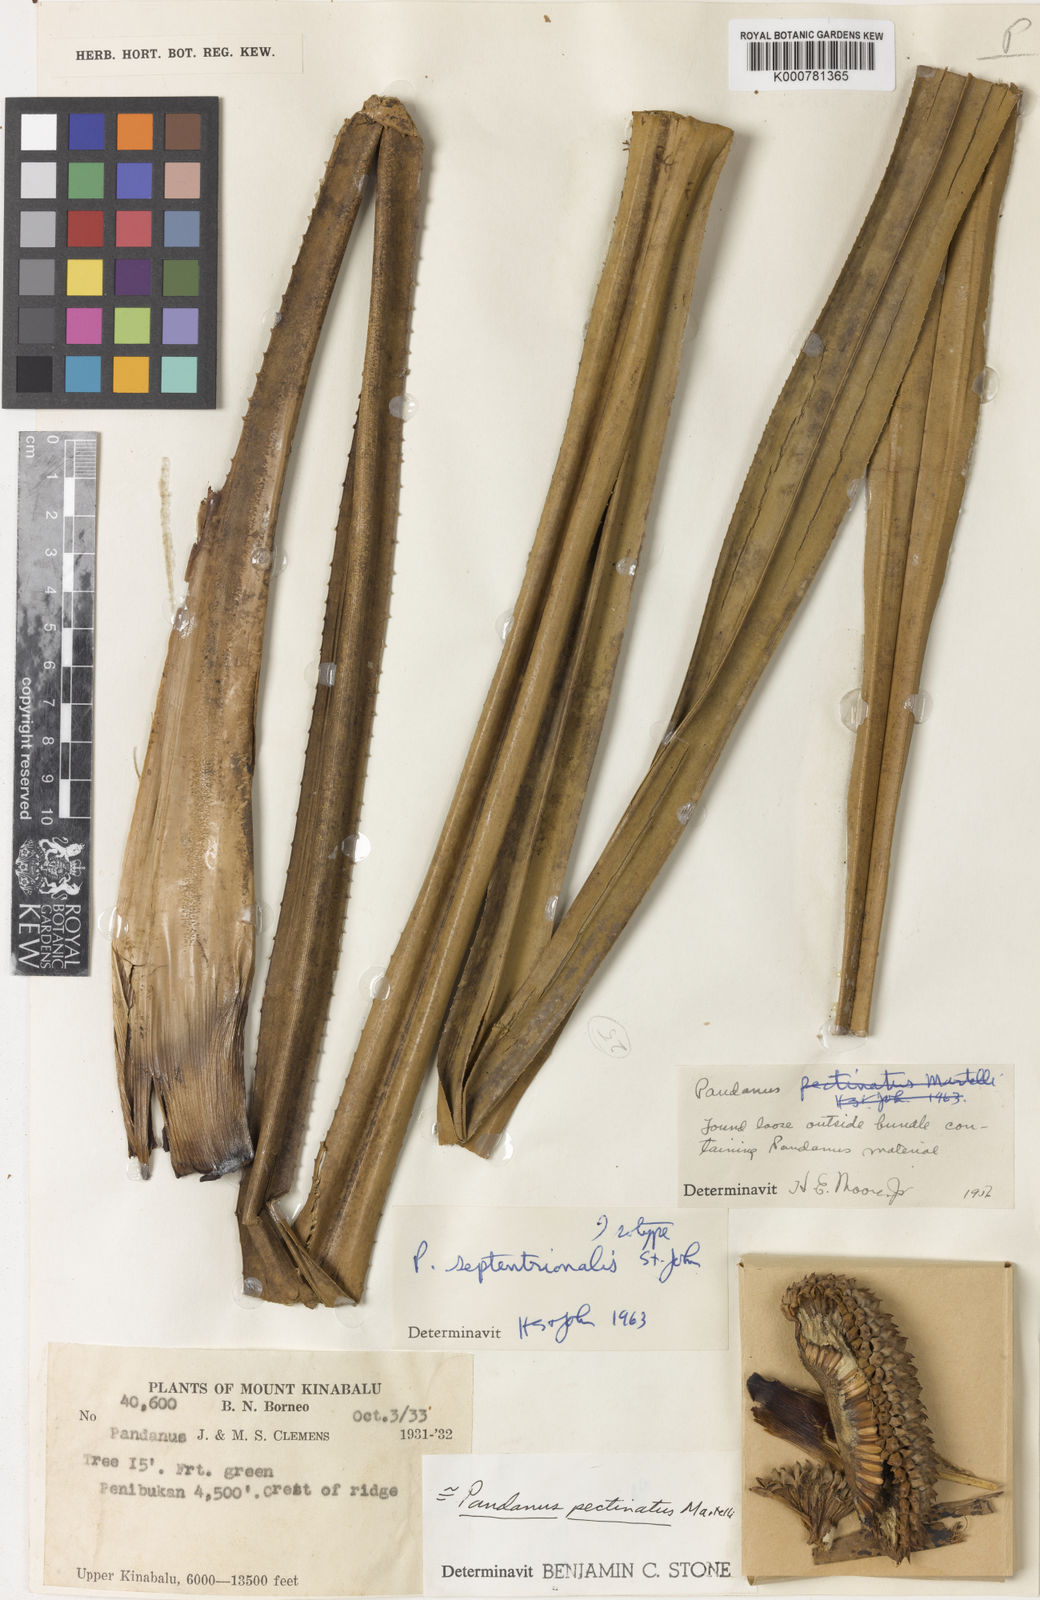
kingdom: Plantae
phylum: Tracheophyta
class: Liliopsida
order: Pandanales
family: Pandanaceae
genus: Benstonea
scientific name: Benstonea pectinata
